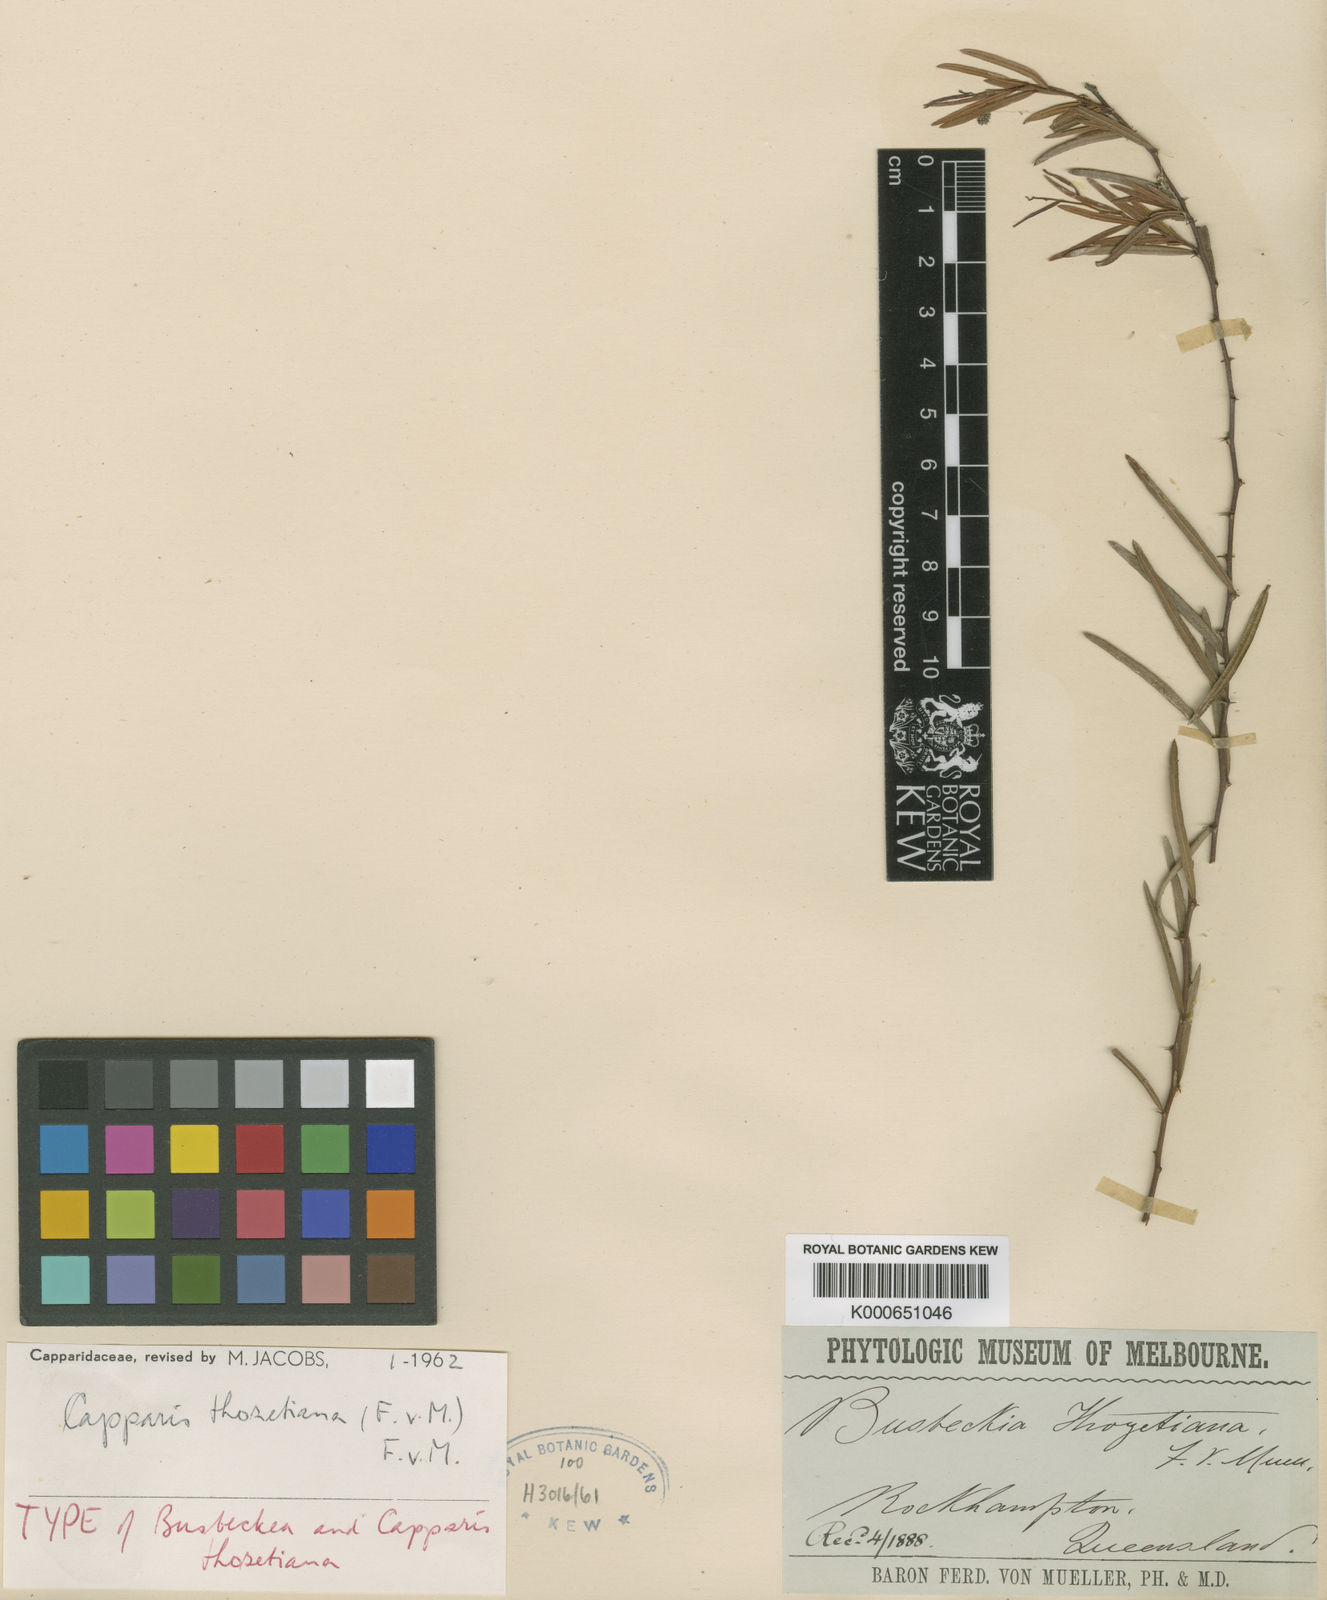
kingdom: Plantae
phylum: Tracheophyta
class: Magnoliopsida
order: Brassicales
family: Capparaceae
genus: Capparis
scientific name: Capparis thozetiana
